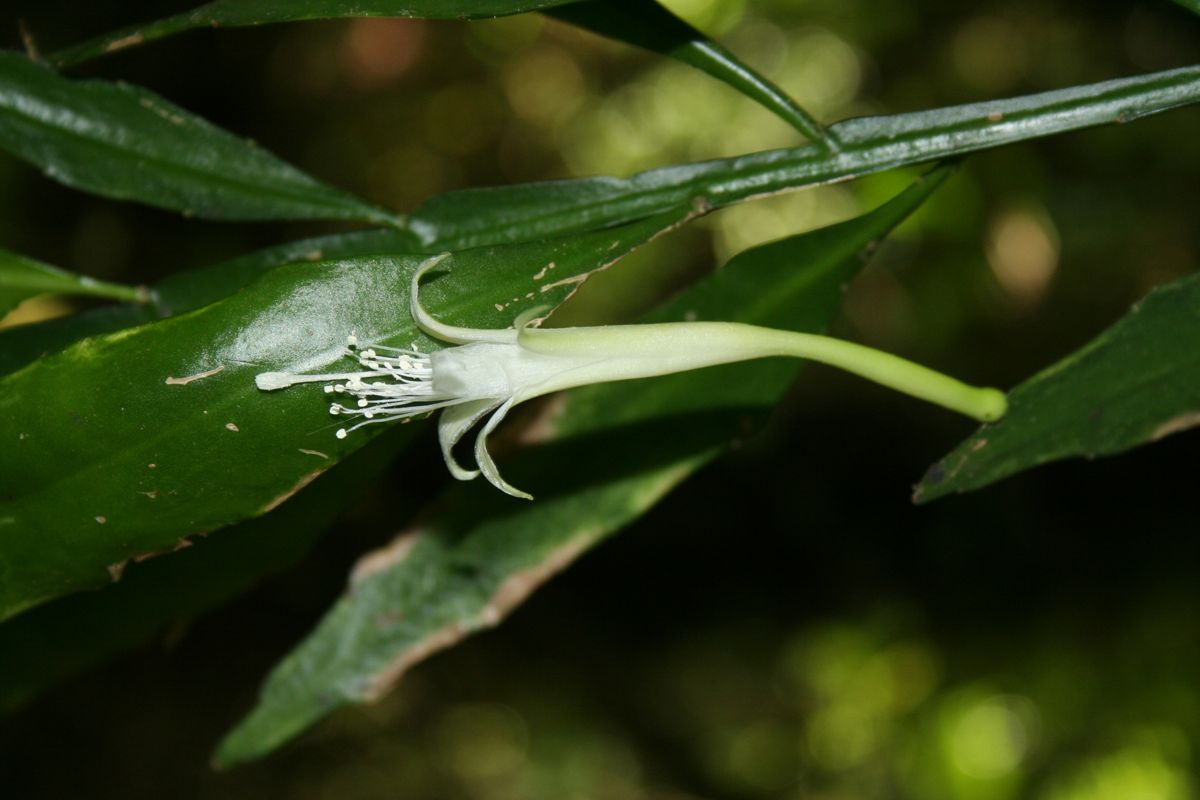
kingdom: Plantae
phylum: Tracheophyta
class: Magnoliopsida
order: Caryophyllales
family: Cactaceae
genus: Disocactus
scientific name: Disocactus salvadorensis
